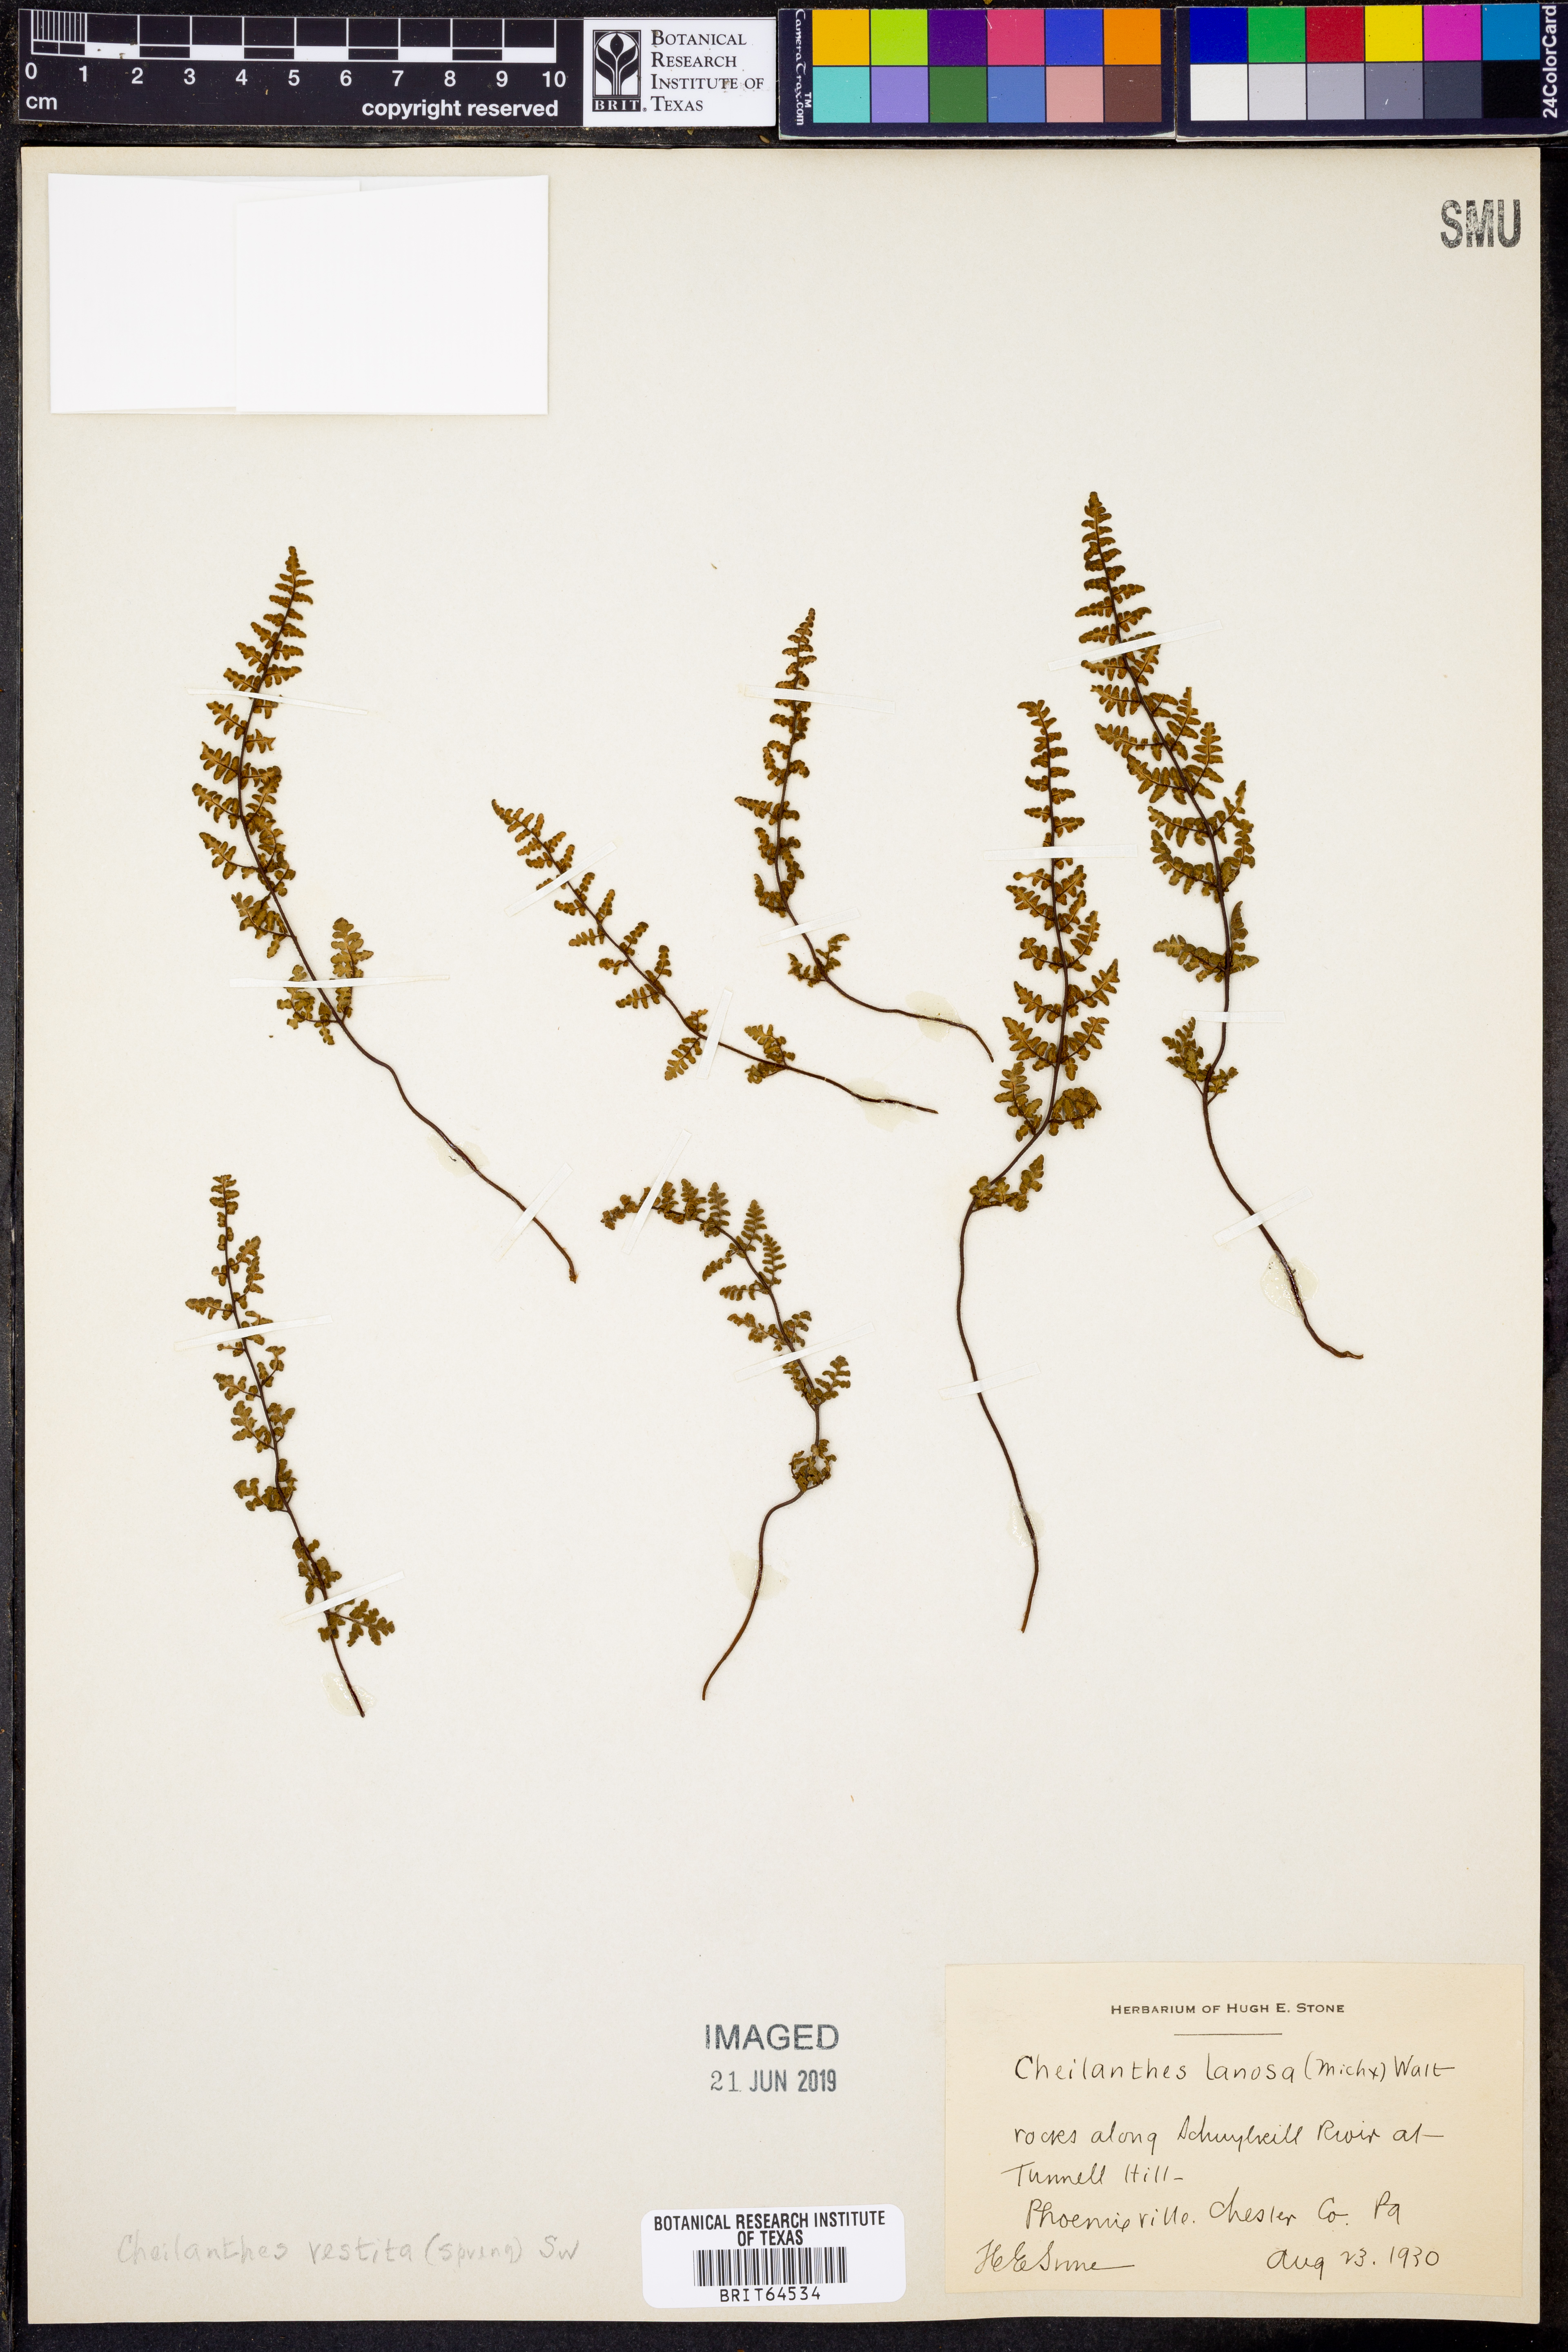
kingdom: Plantae
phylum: Tracheophyta
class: Polypodiopsida
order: Polypodiales
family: Pteridaceae
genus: Myriopteris
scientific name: Myriopteris lanosa
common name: Hairy lip fern
